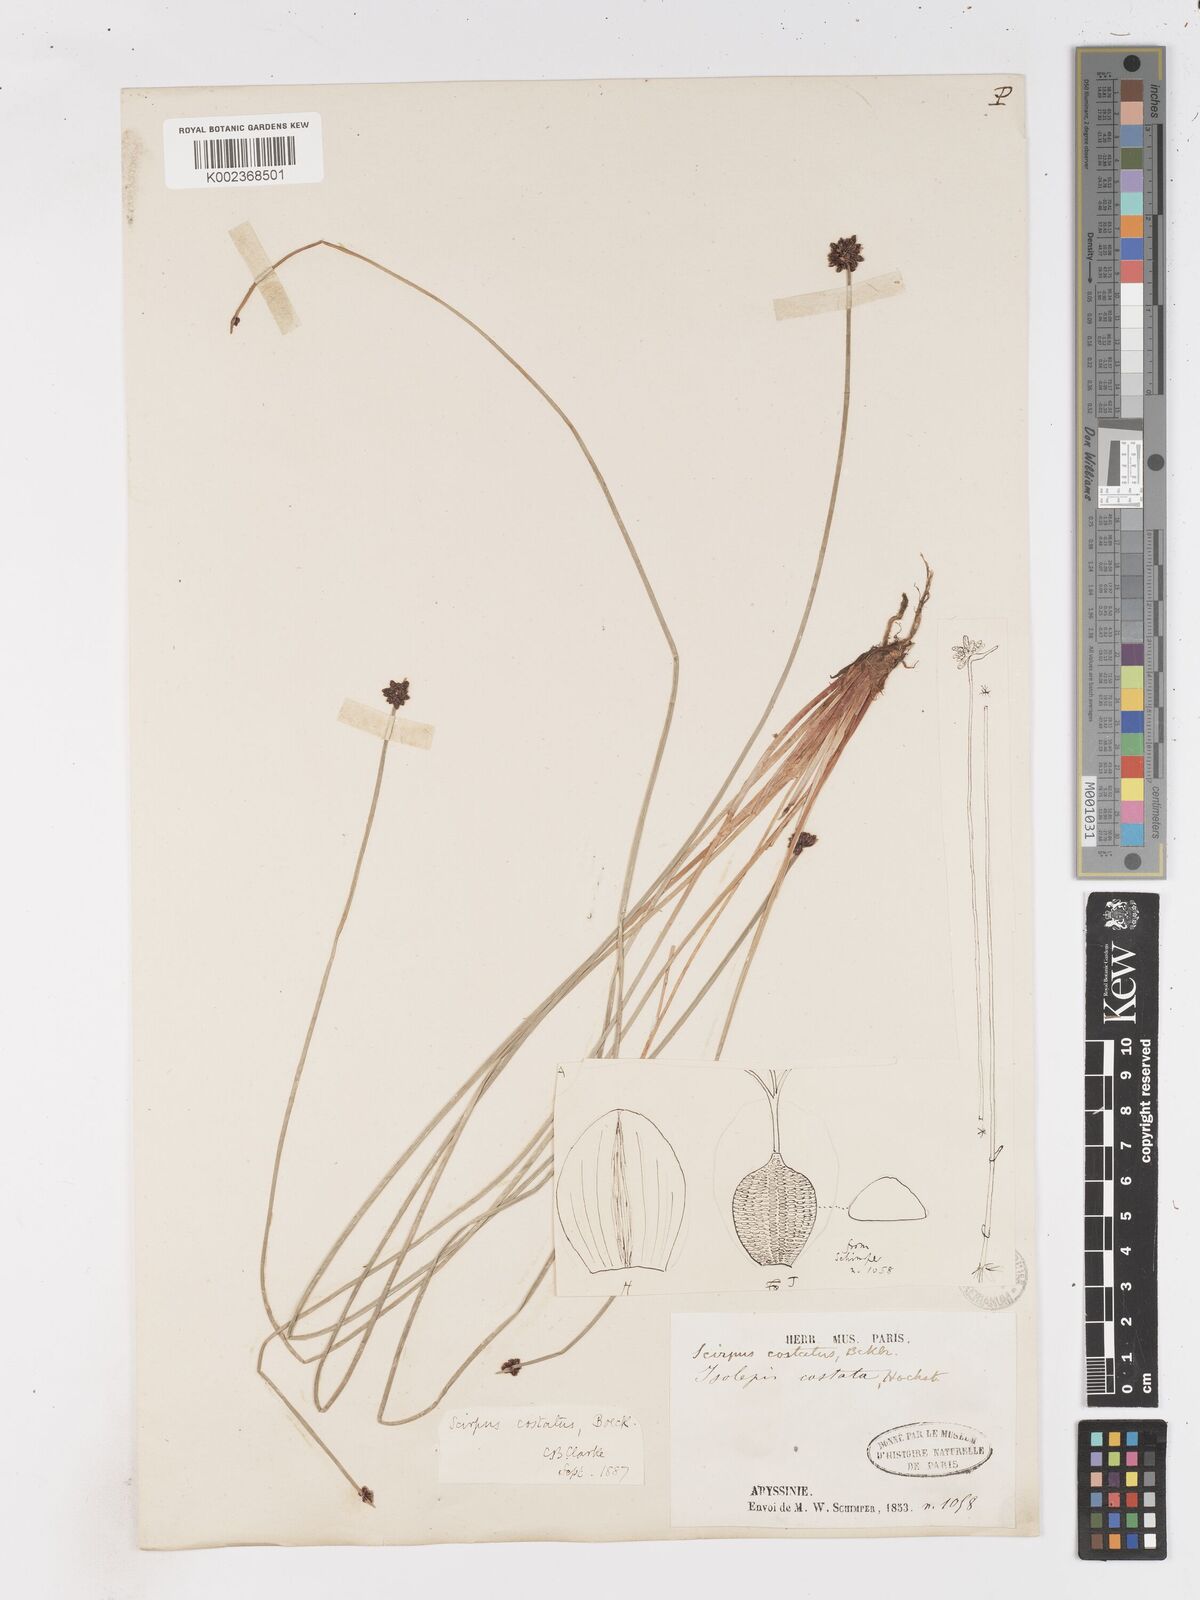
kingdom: Plantae
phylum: Tracheophyta
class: Liliopsida
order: Poales
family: Cyperaceae
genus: Isolepis
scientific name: Isolepis costata
